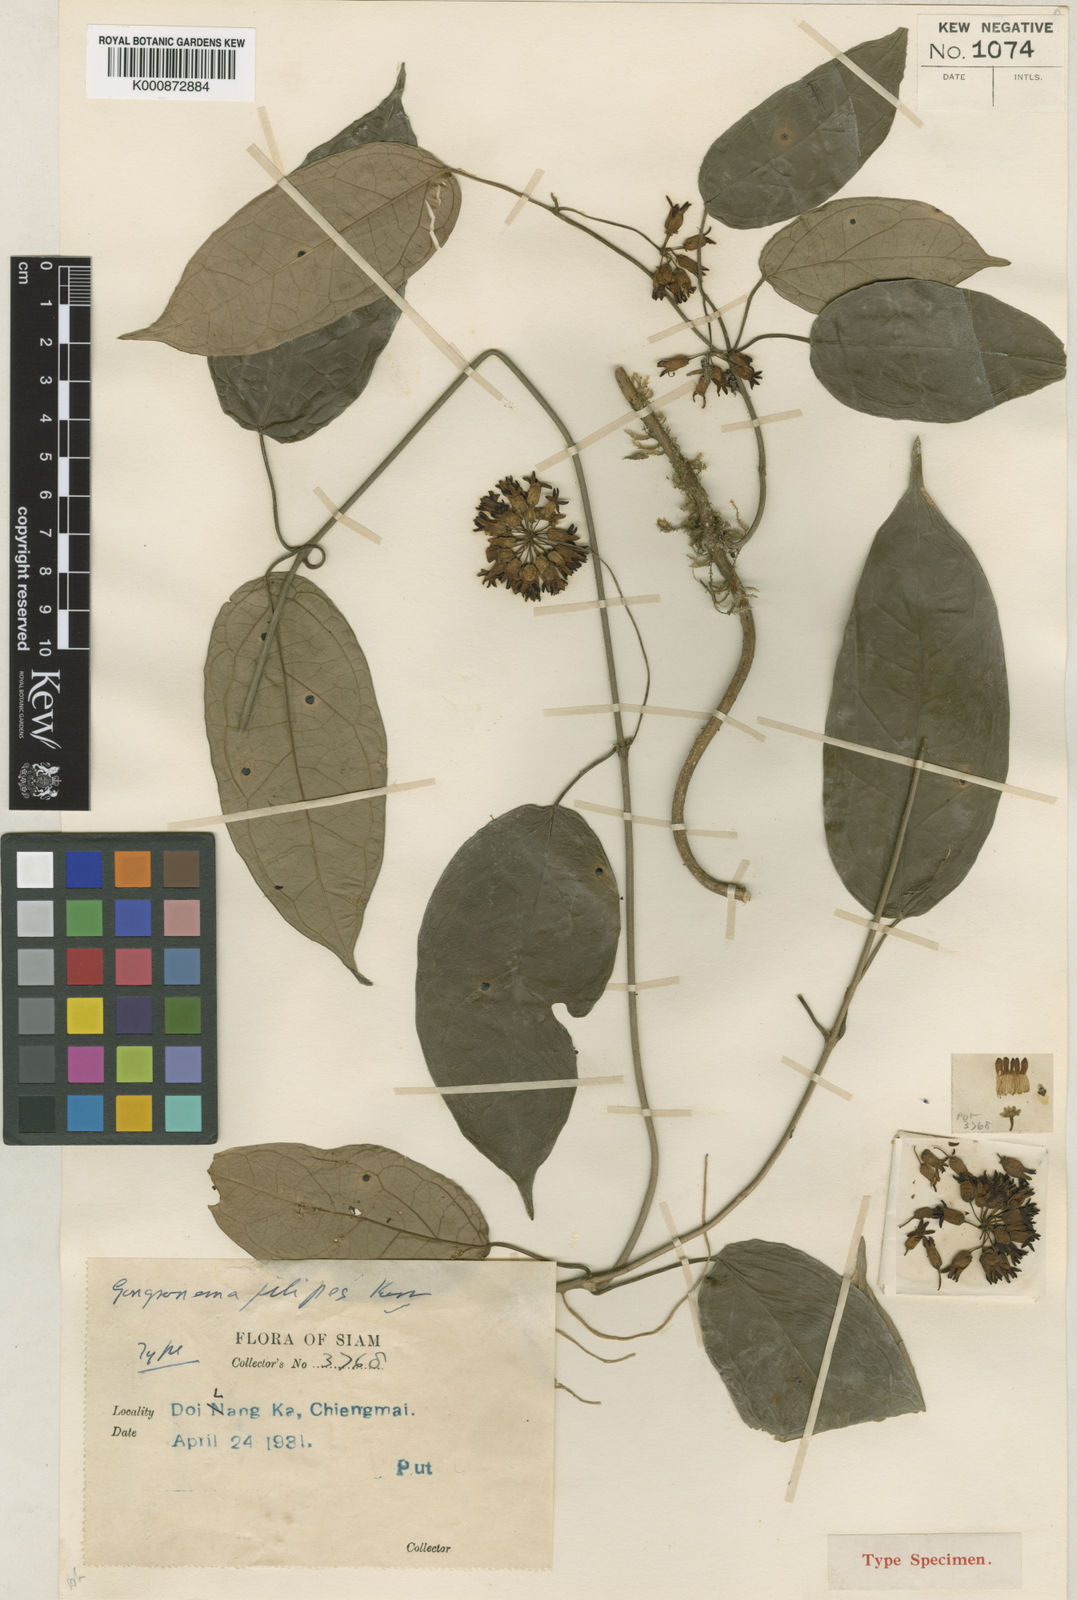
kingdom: Plantae
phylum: Tracheophyta
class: Magnoliopsida
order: Gentianales
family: Apocynaceae
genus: Gongreos
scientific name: Gongreos filipes
